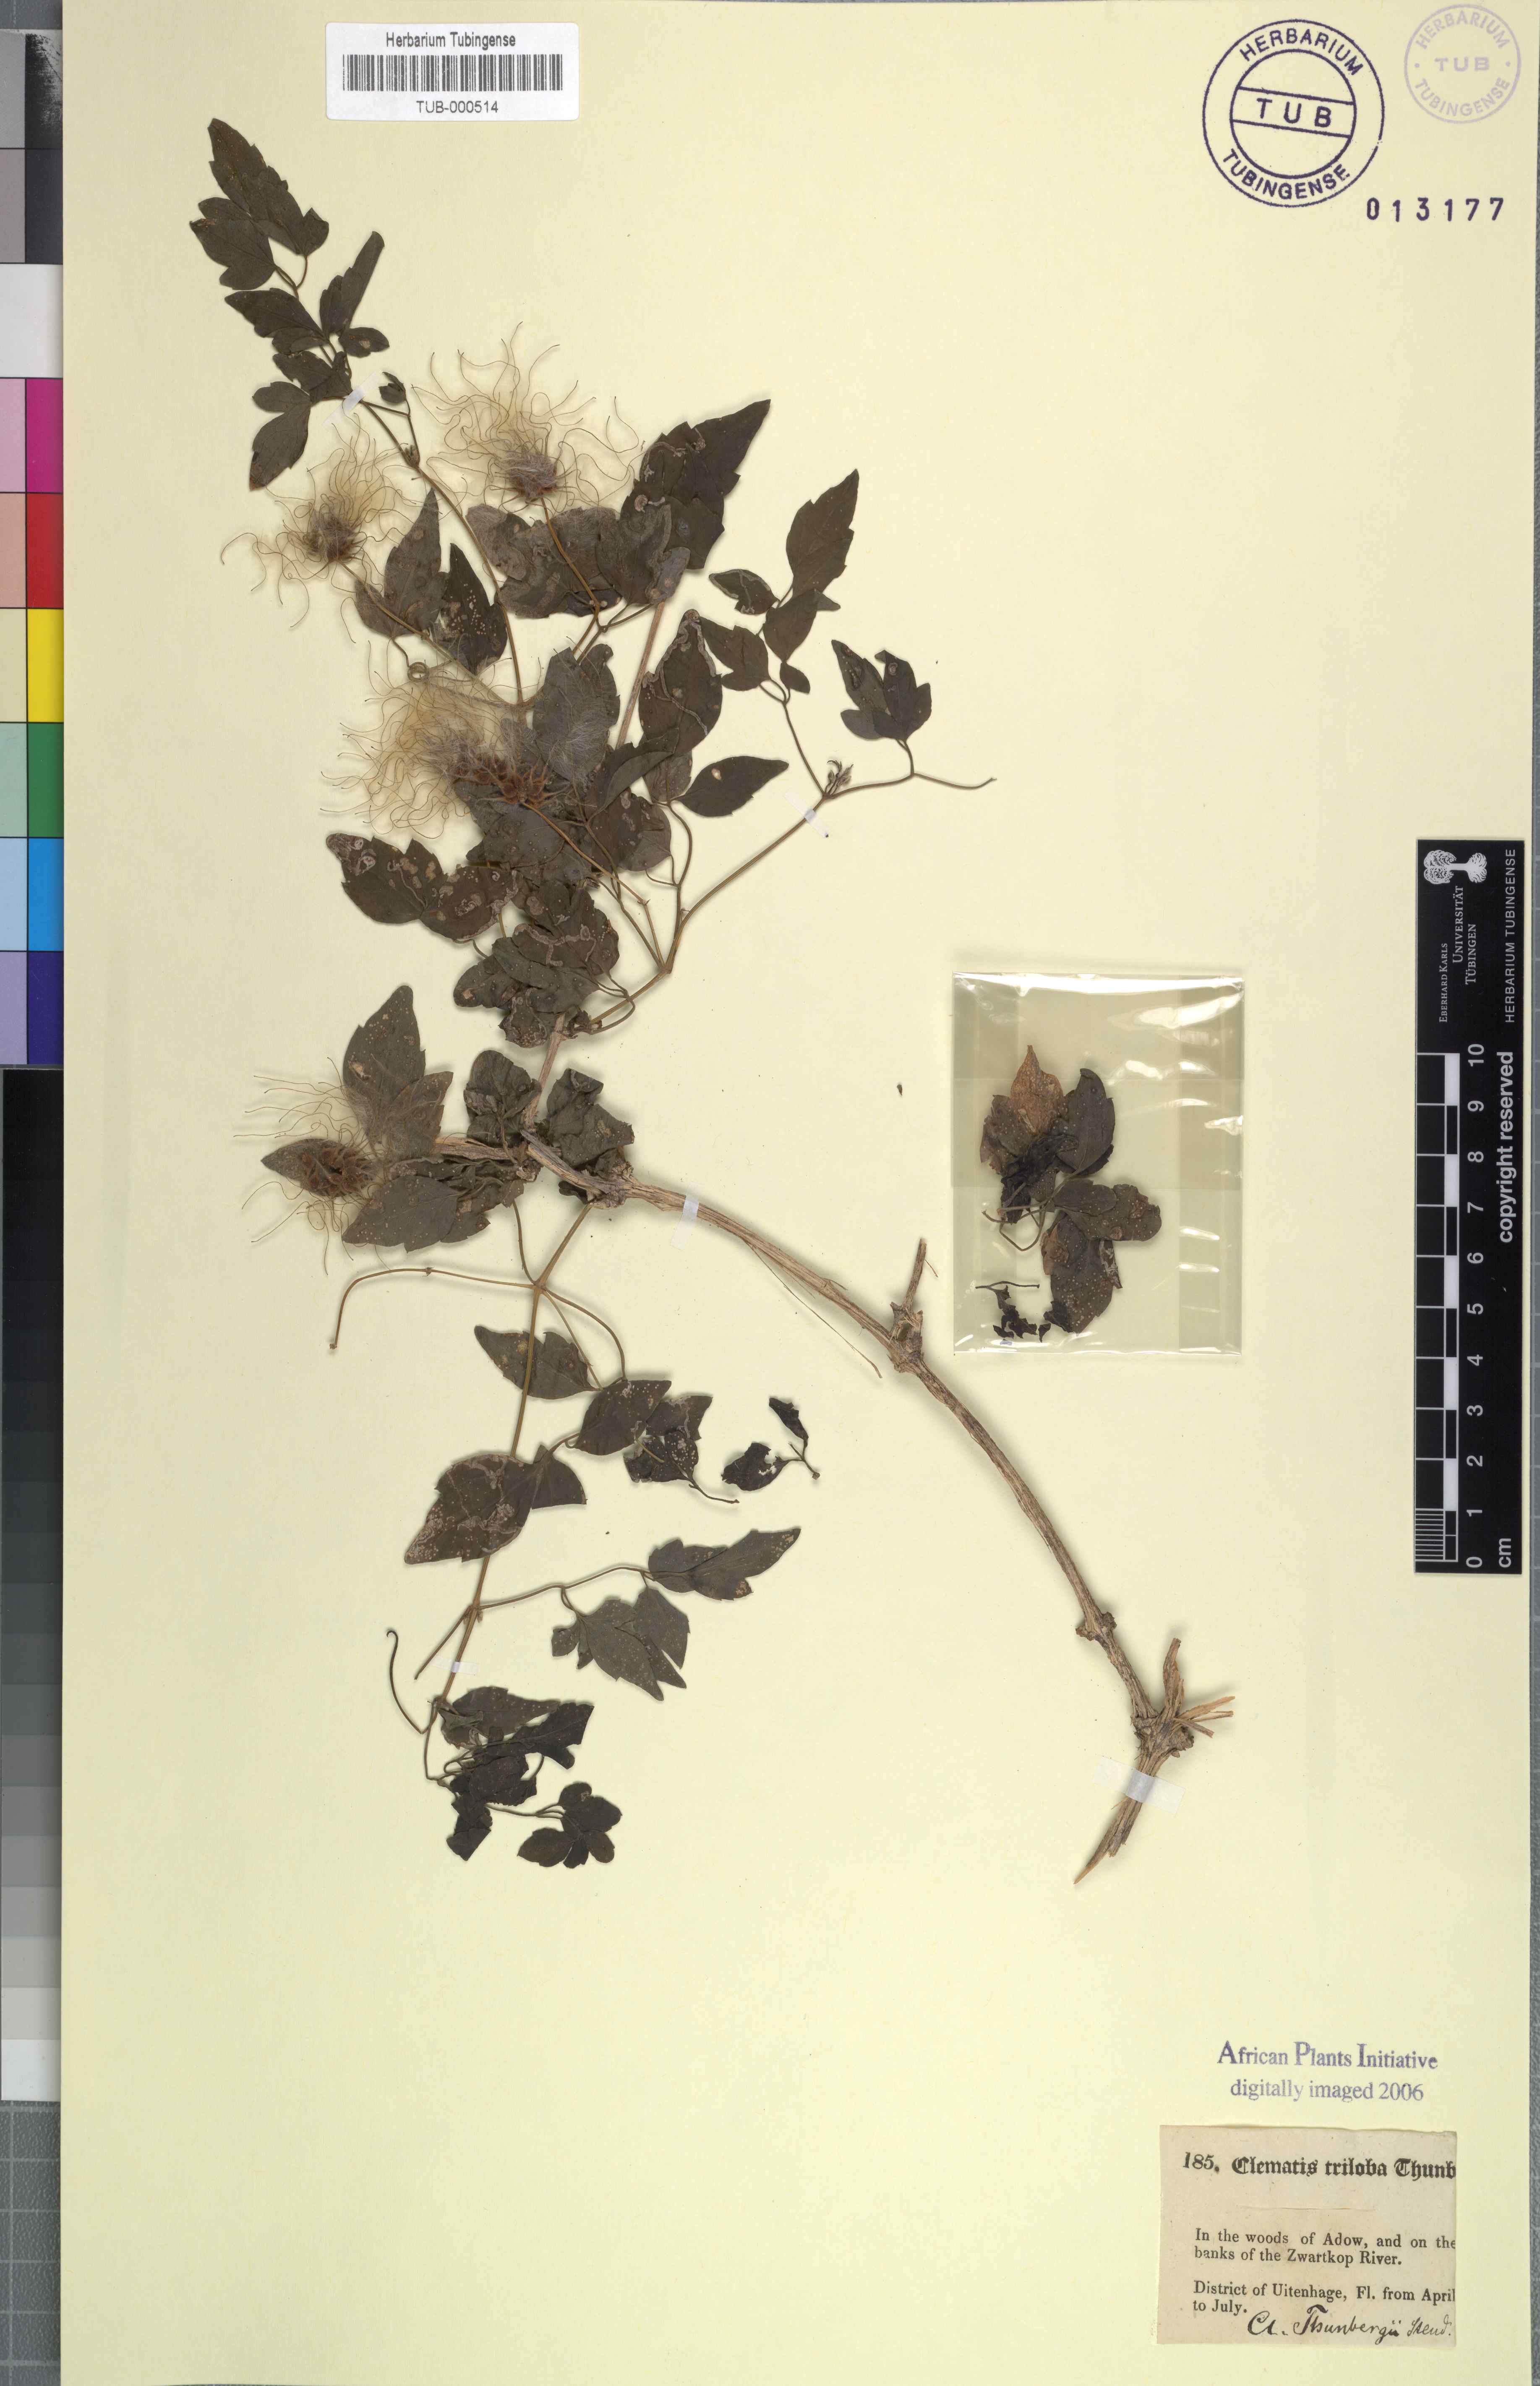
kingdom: Plantae
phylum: Tracheophyta
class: Magnoliopsida
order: Ranunculales
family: Ranunculaceae
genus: Clematis
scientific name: Clematis
